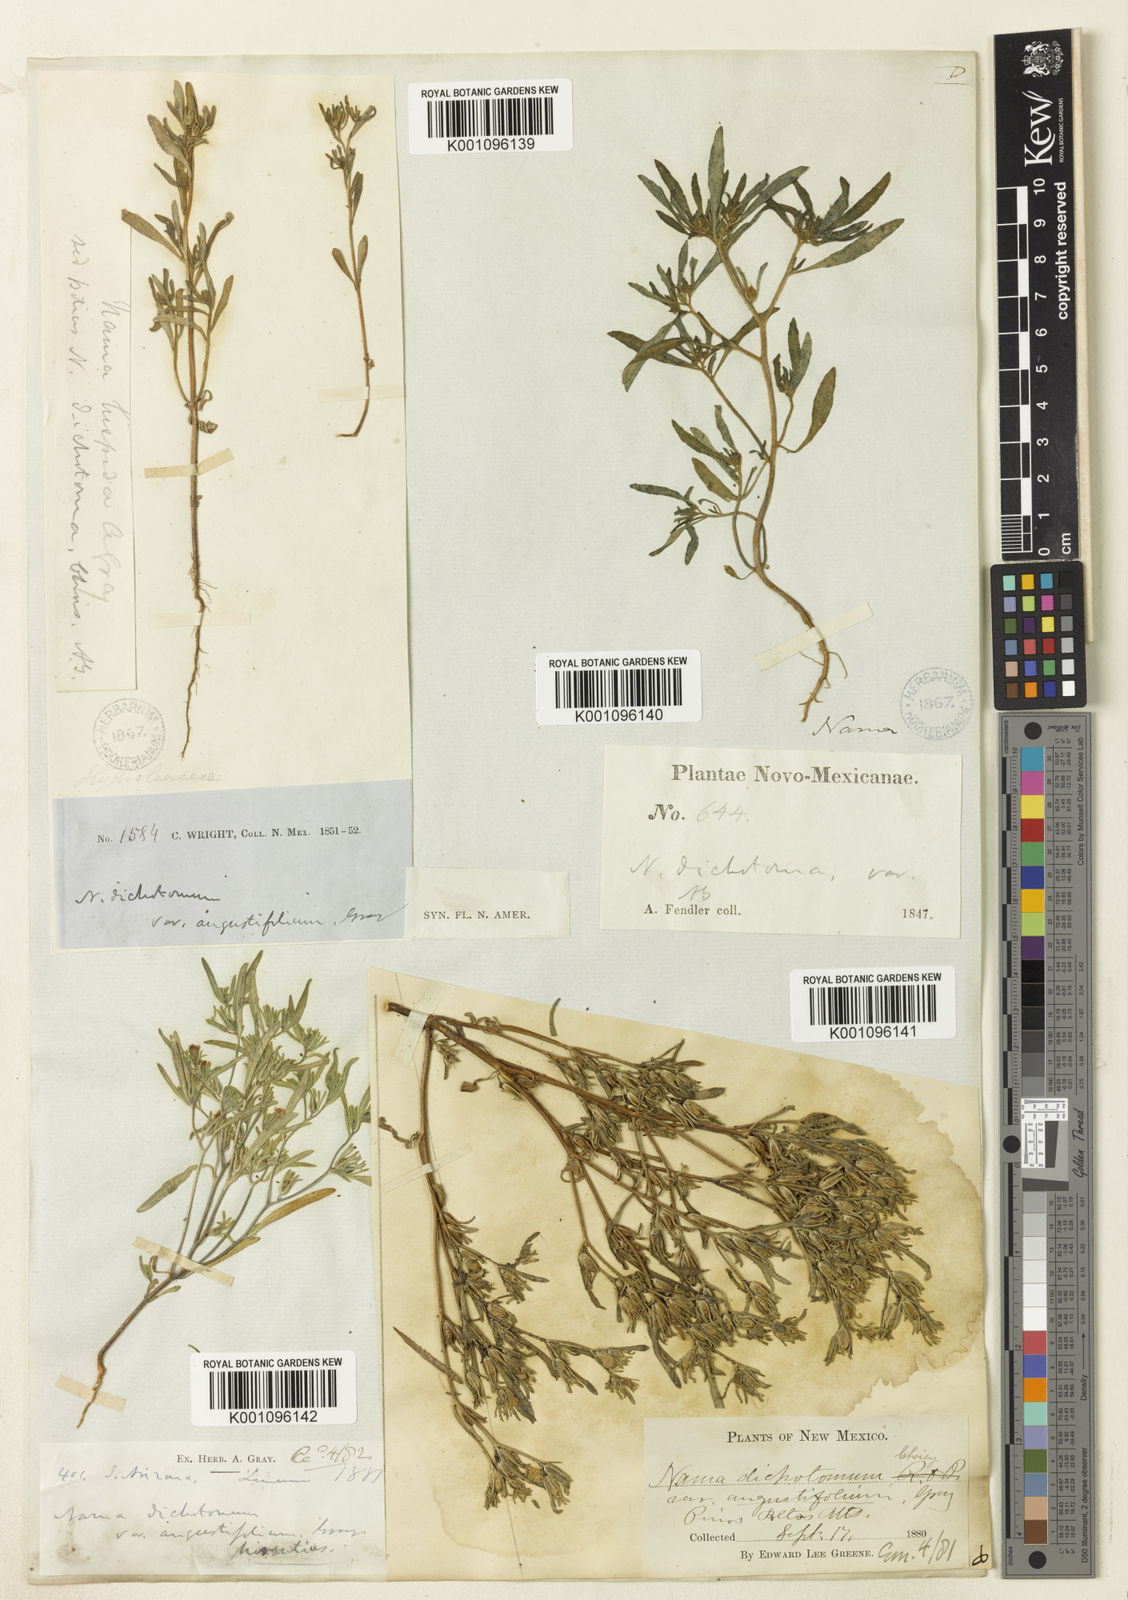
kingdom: Plantae
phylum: Tracheophyta
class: Magnoliopsida
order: Boraginales
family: Namaceae
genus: Nama
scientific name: Nama dichotoma
